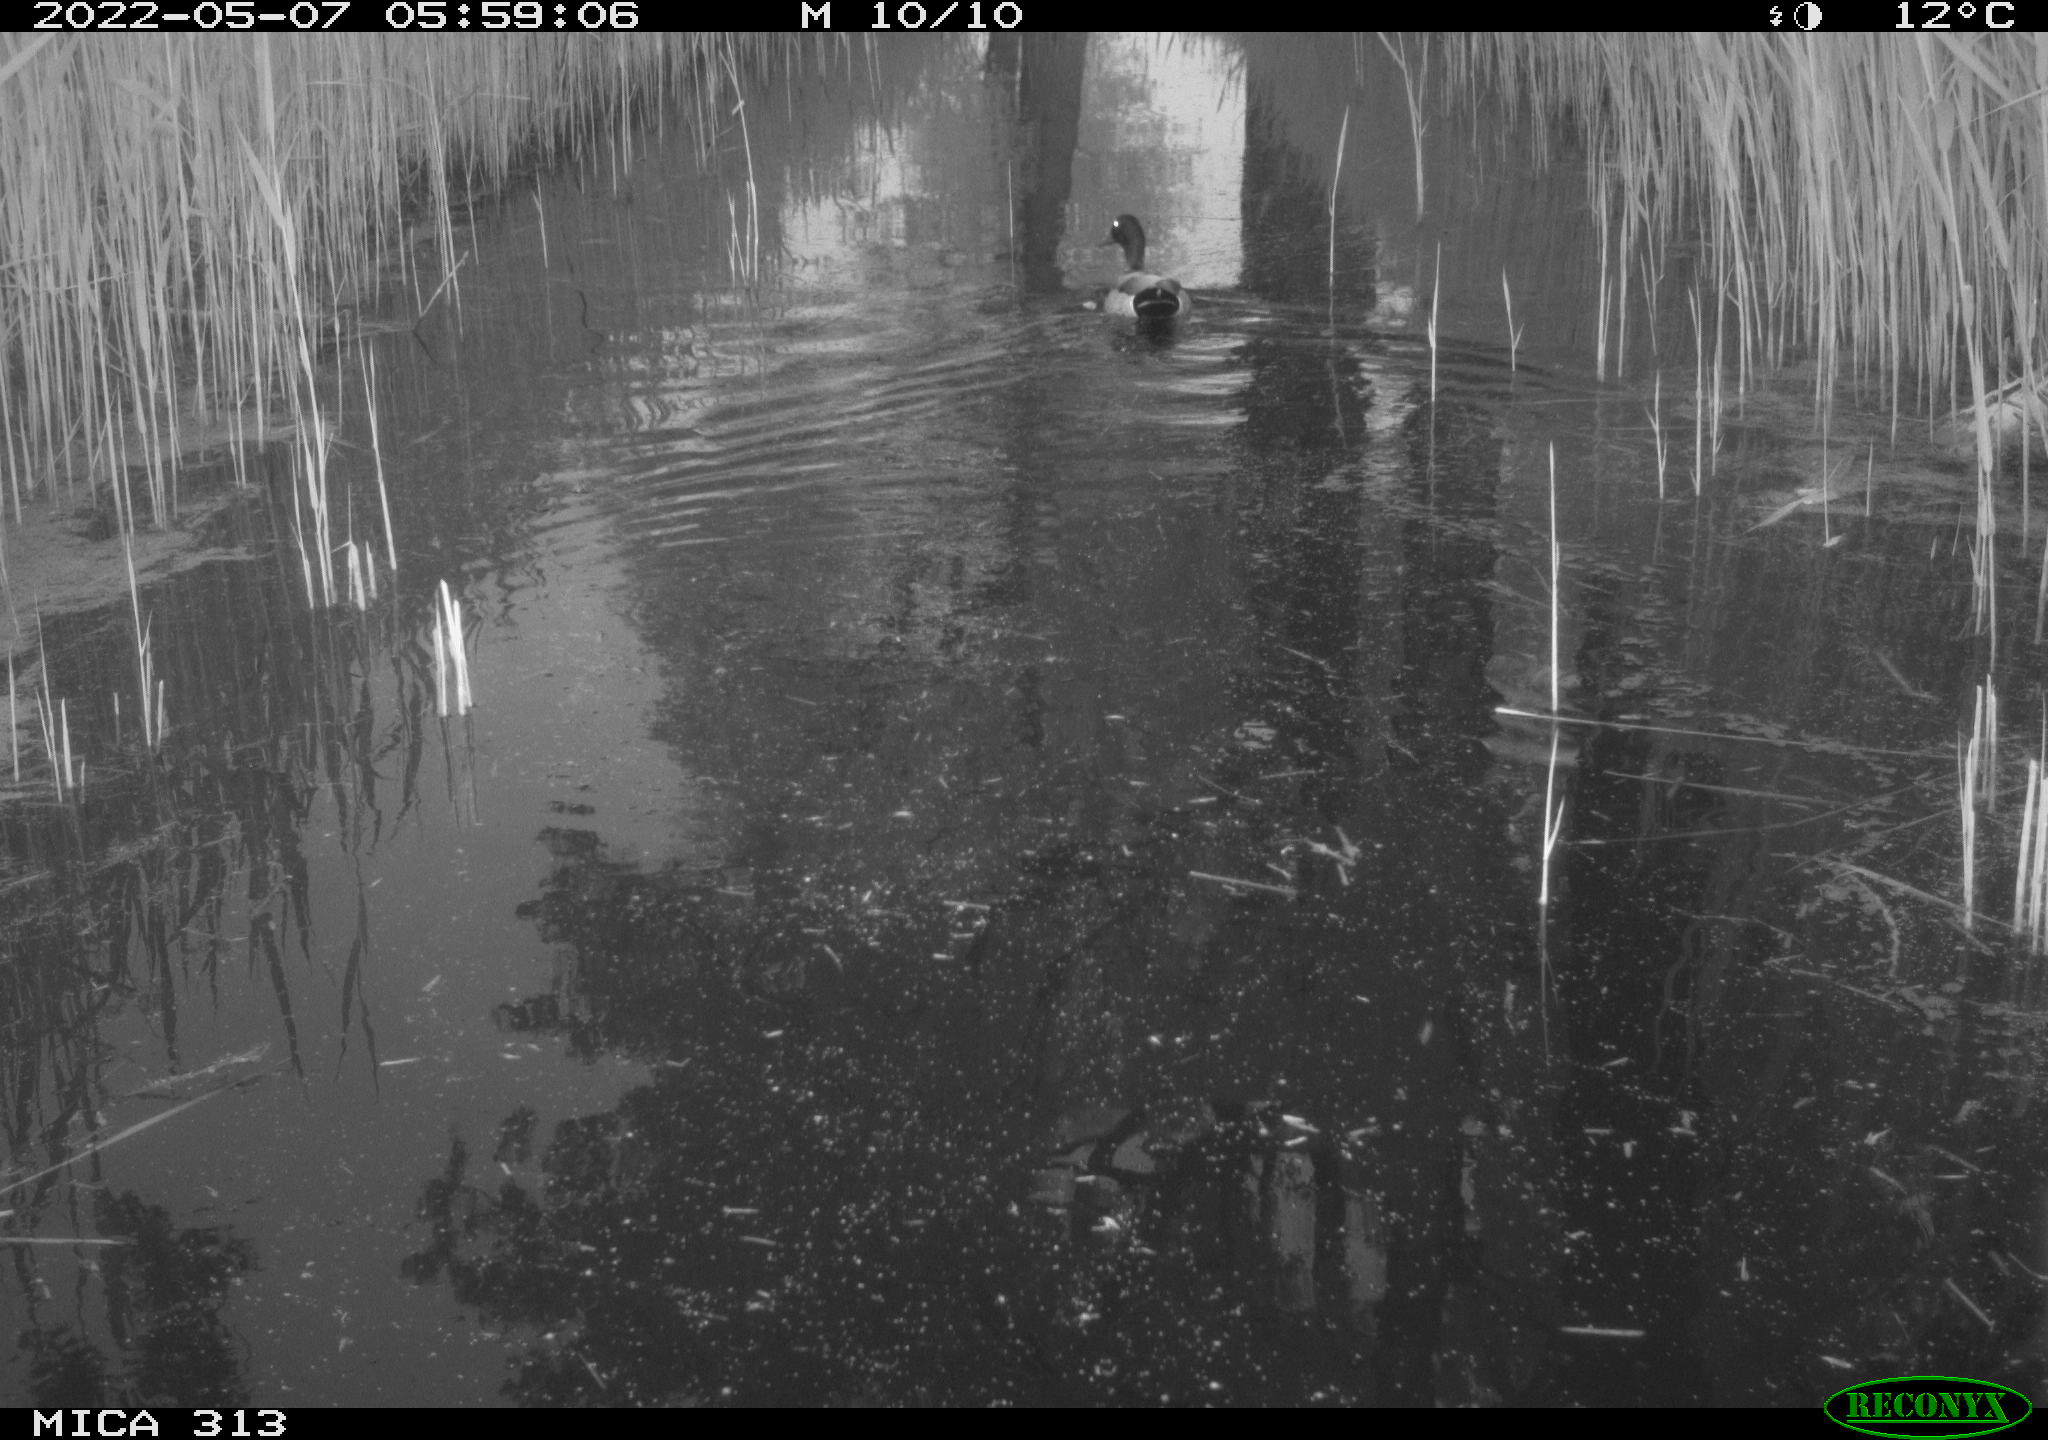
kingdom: Animalia
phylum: Chordata
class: Aves
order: Anseriformes
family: Anatidae
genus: Anas
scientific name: Anas platyrhynchos
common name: Mallard
